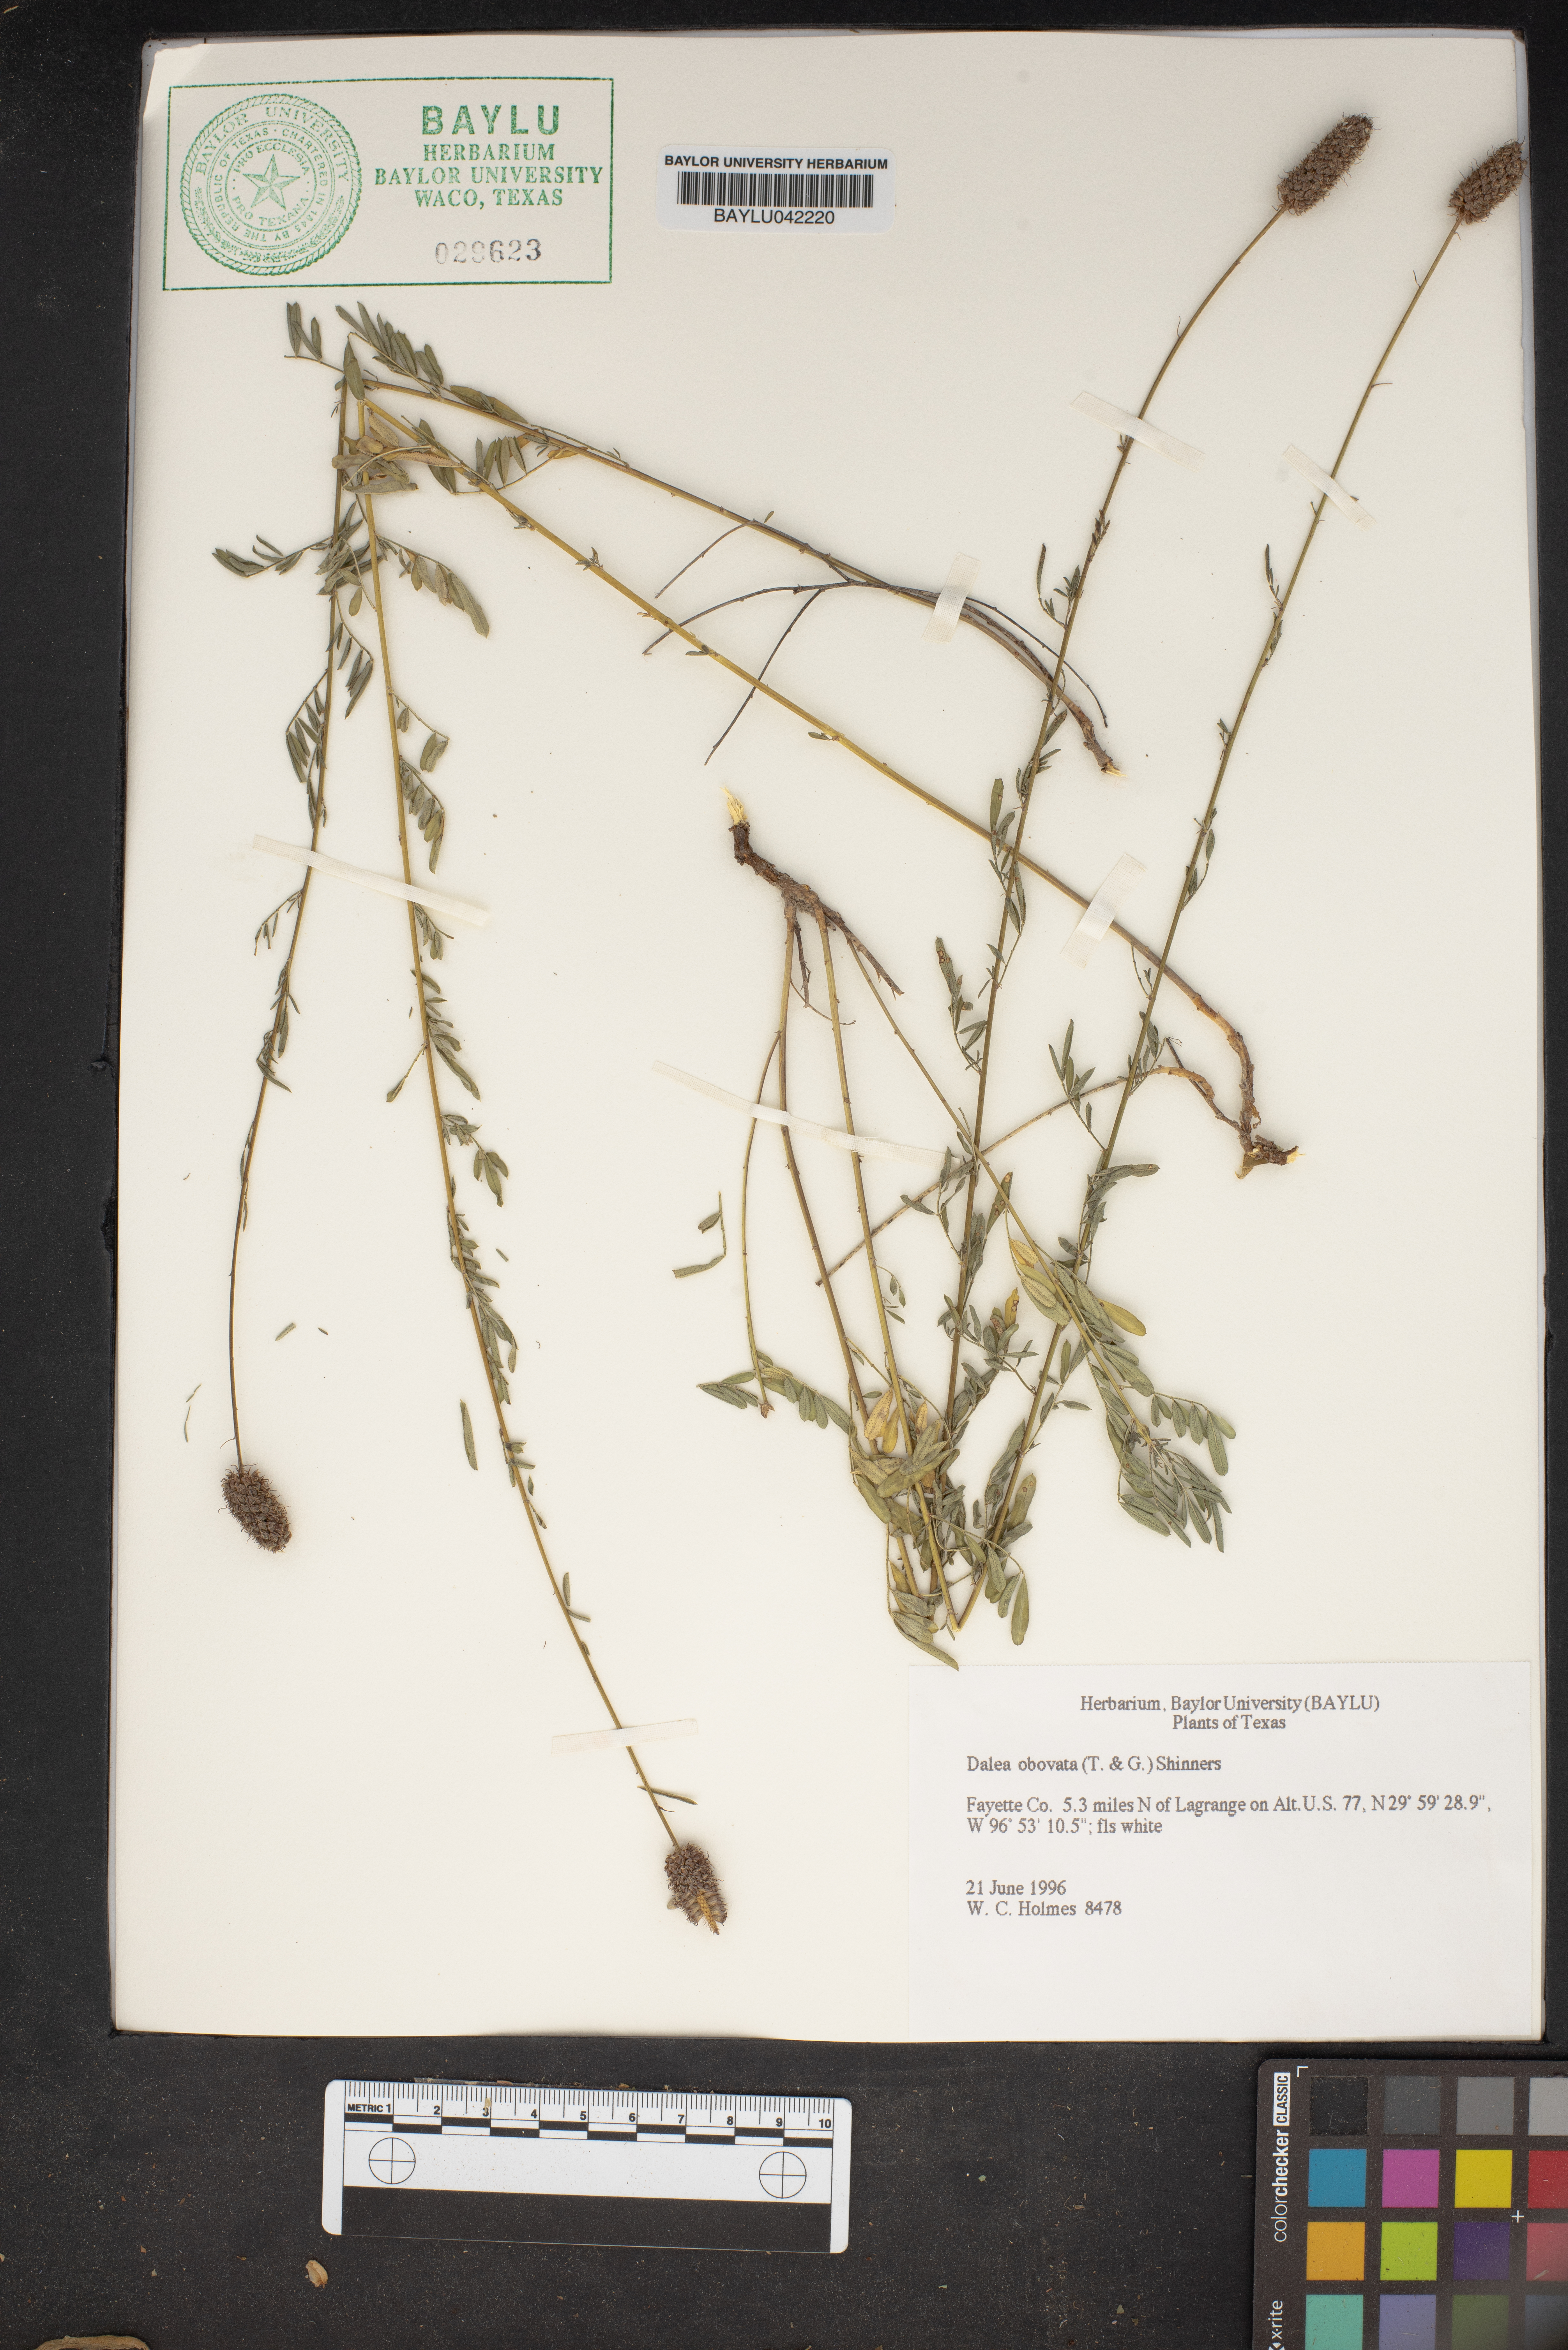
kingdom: Plantae
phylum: Tracheophyta
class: Magnoliopsida
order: Fabales
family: Fabaceae
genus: Dalea
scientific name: Dalea obovata
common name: Pussyfoot
